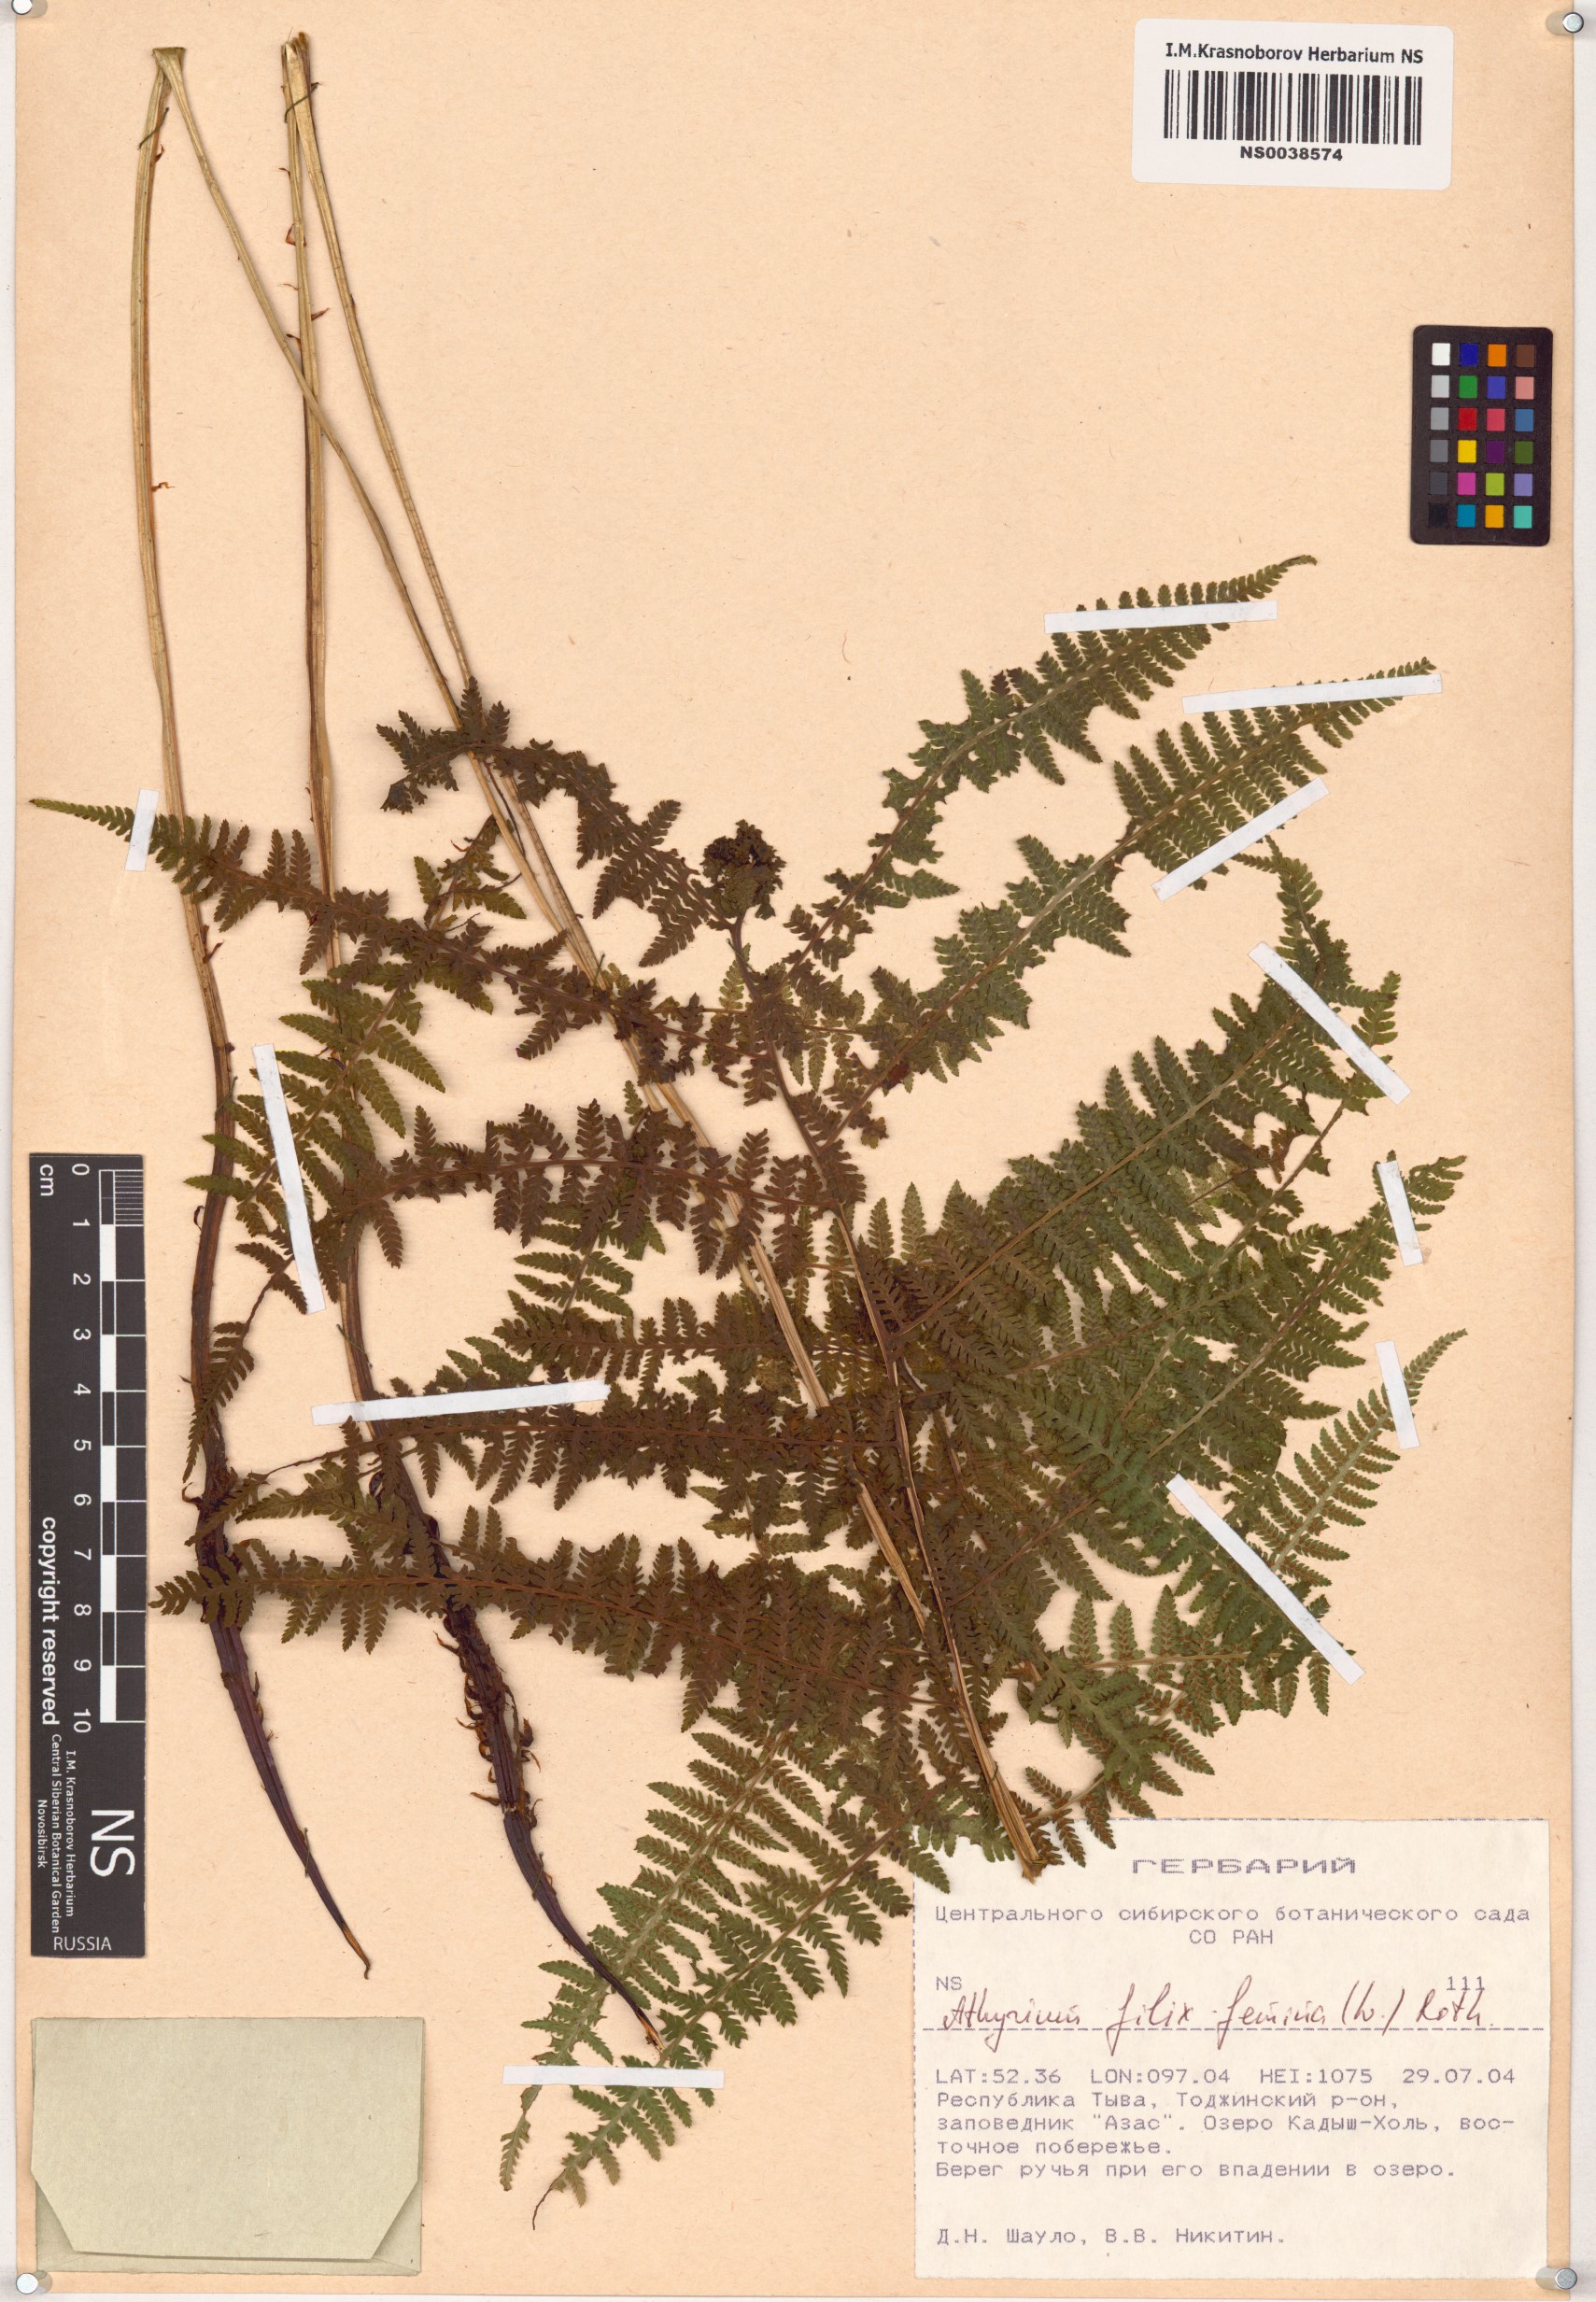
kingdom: Plantae
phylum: Tracheophyta
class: Polypodiopsida
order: Polypodiales
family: Athyriaceae
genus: Athyrium
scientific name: Athyrium filix-femina
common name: Lady fern
